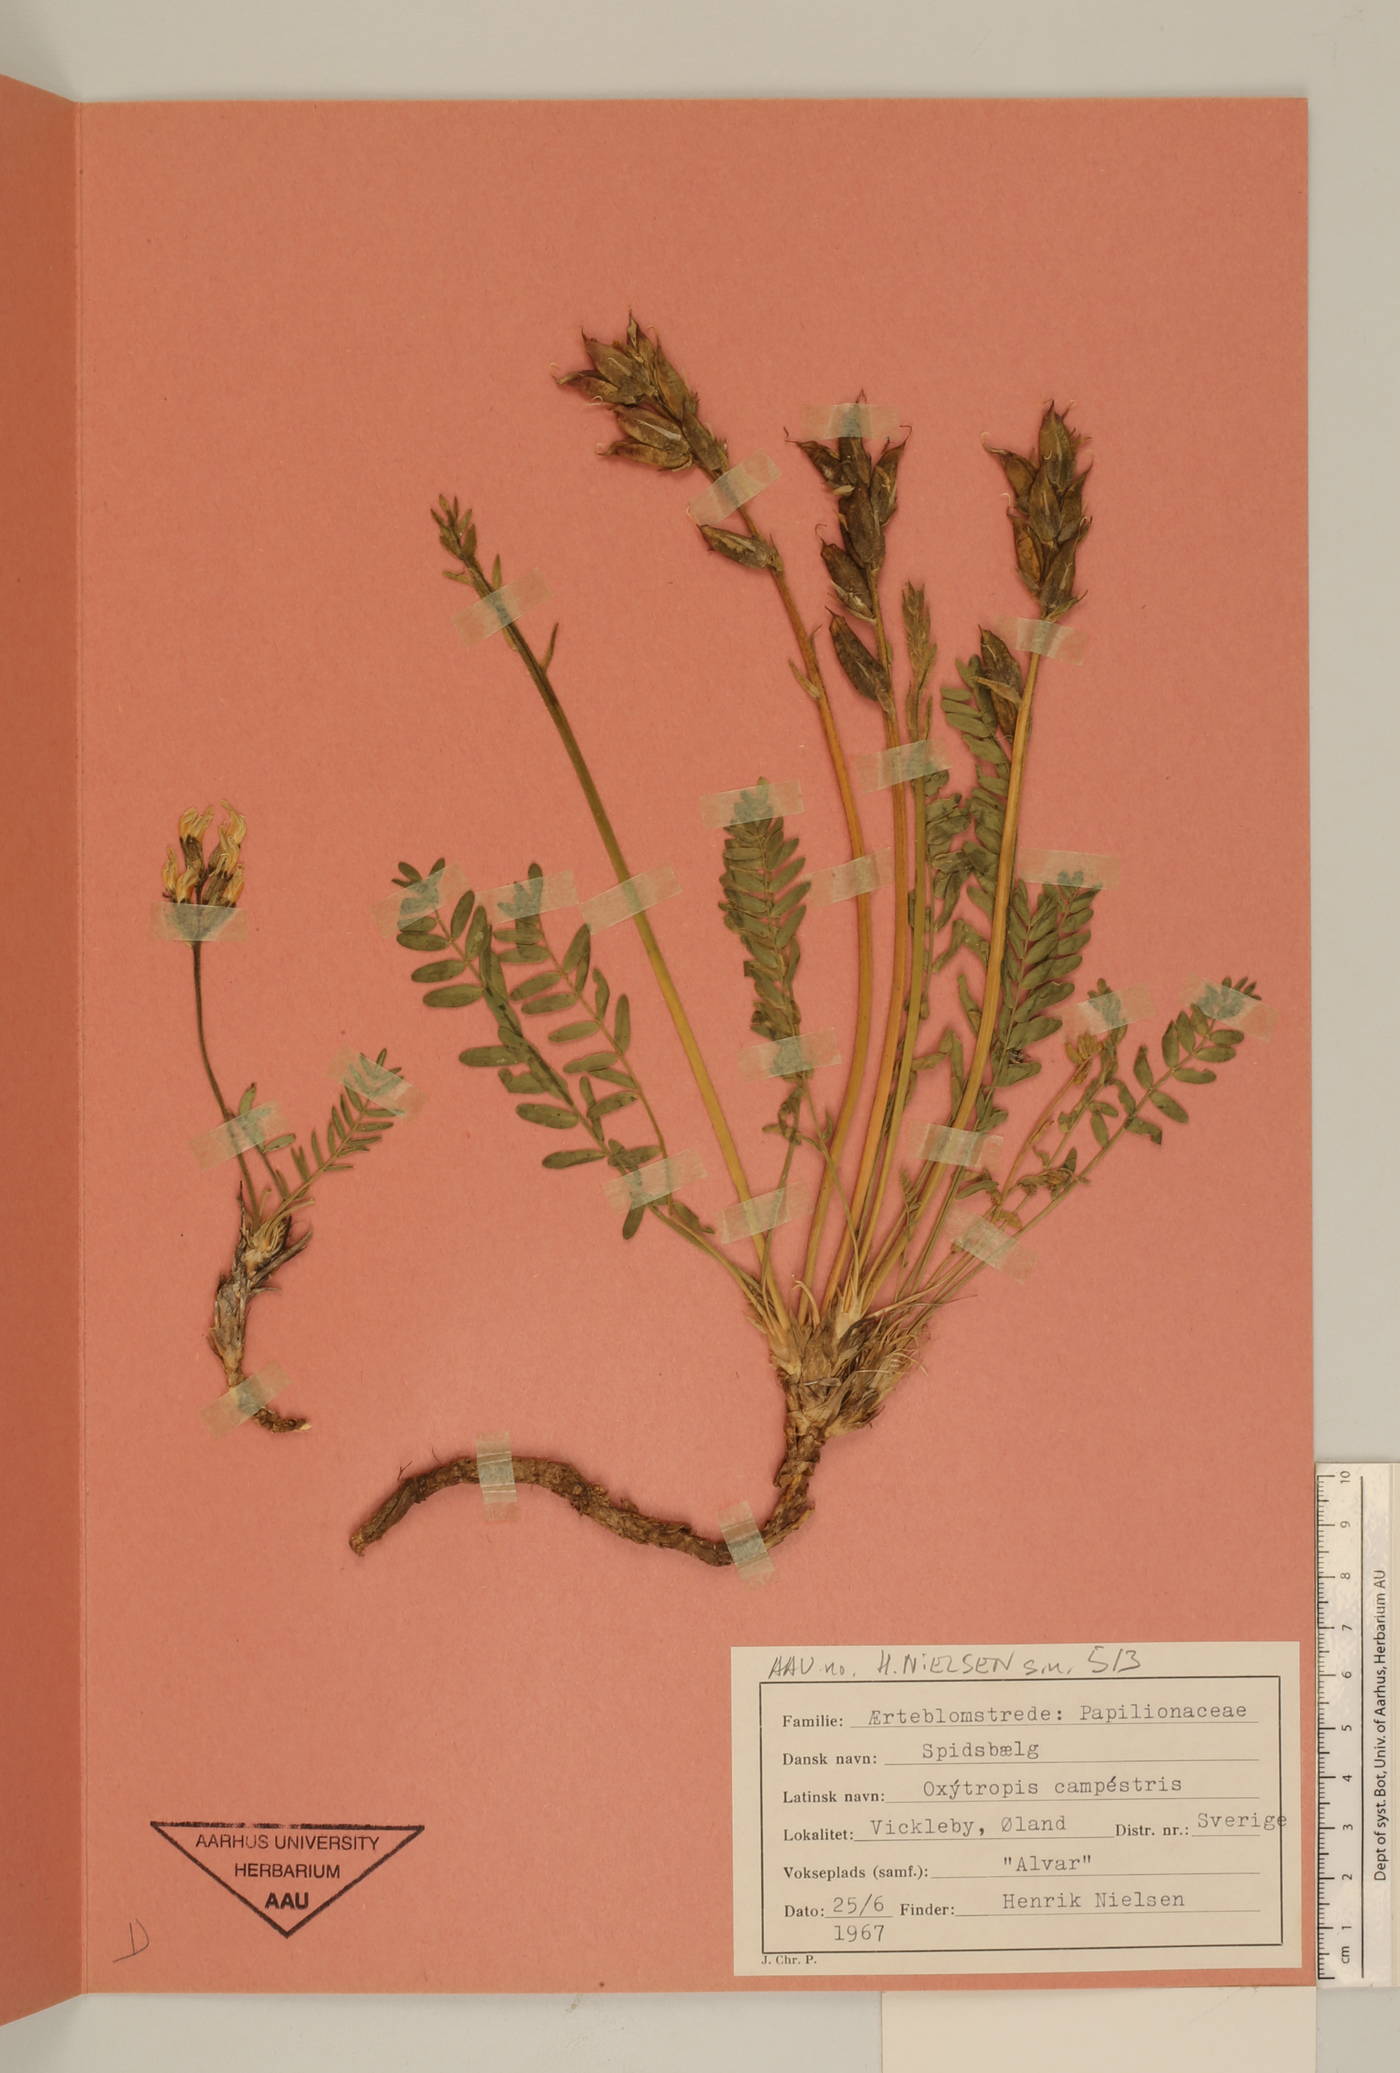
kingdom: Plantae
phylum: Tracheophyta
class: Magnoliopsida
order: Fabales
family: Fabaceae
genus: Oxytropis
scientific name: Oxytropis campestris
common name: Field locoweed
